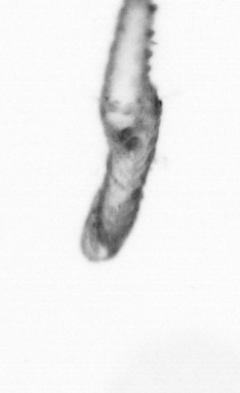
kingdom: Animalia
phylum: Annelida
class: Polychaeta
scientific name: Polychaeta
